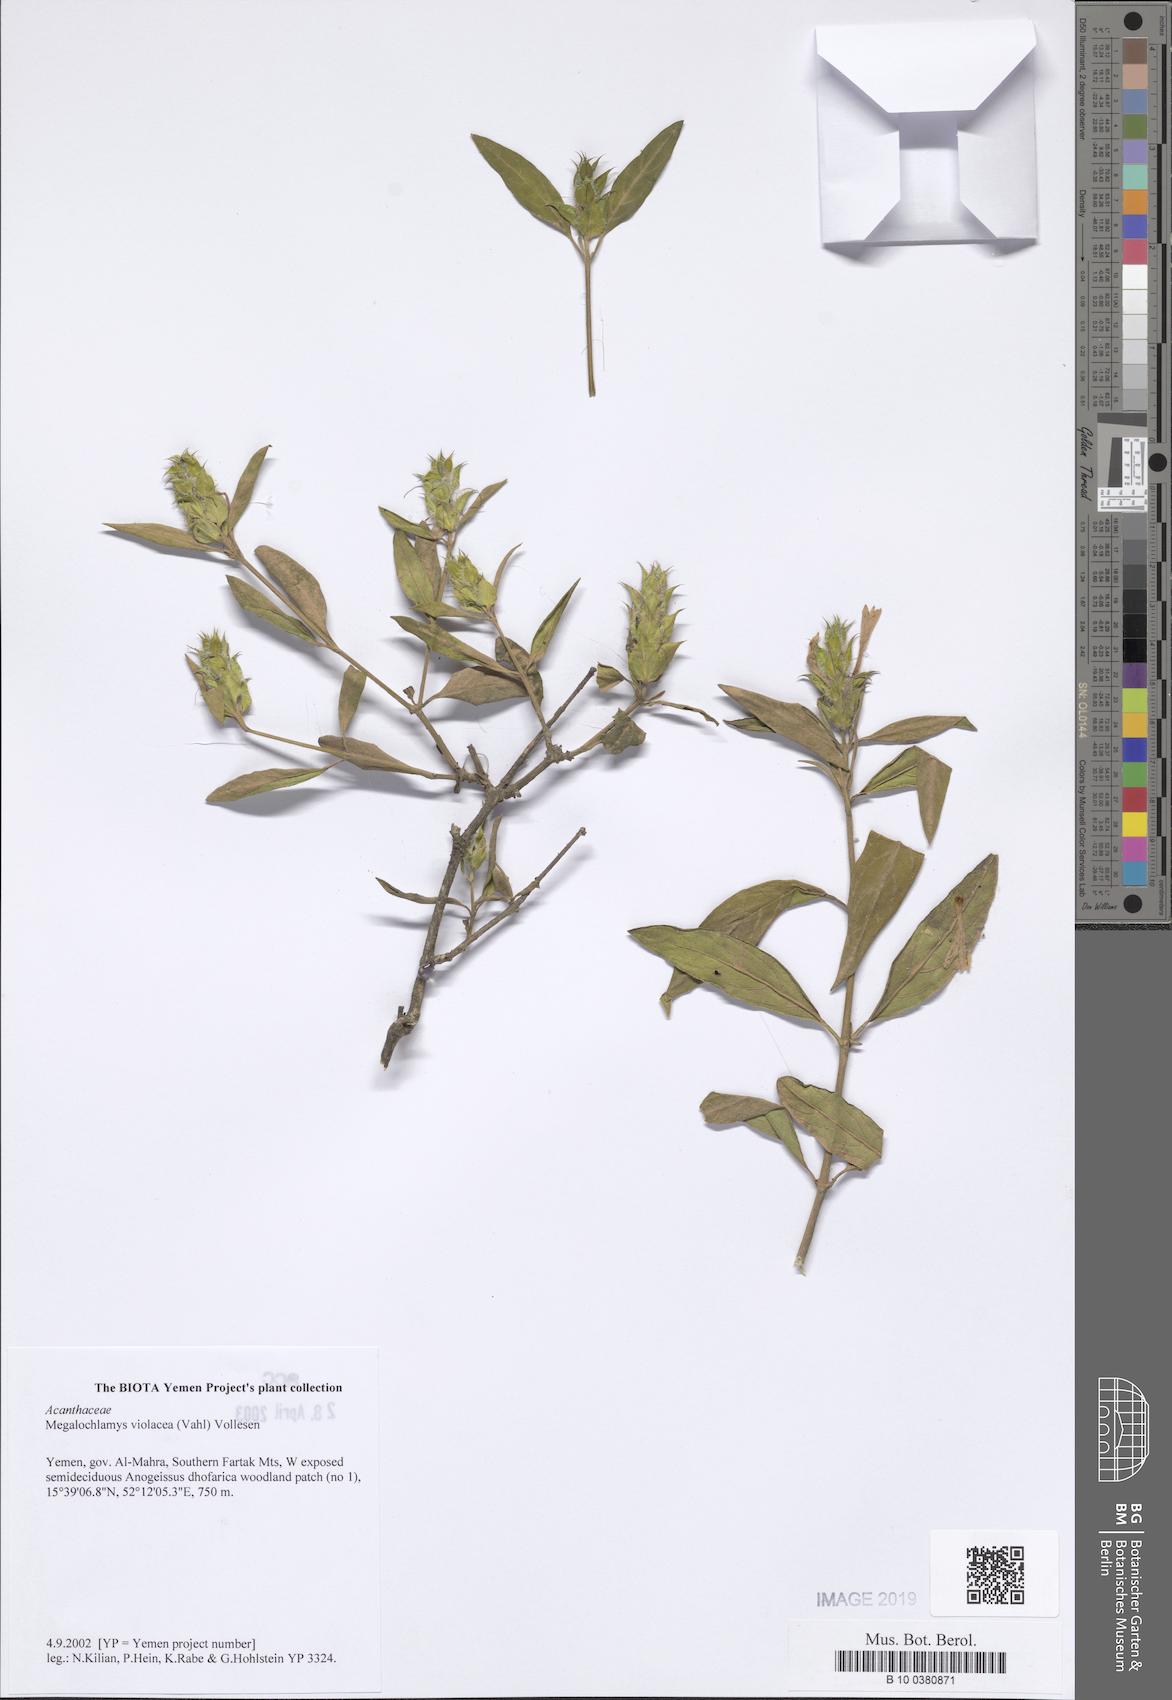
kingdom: Plantae
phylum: Tracheophyta
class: Magnoliopsida
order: Lamiales
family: Acanthaceae
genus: Megalochlamys
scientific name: Megalochlamys violacea
